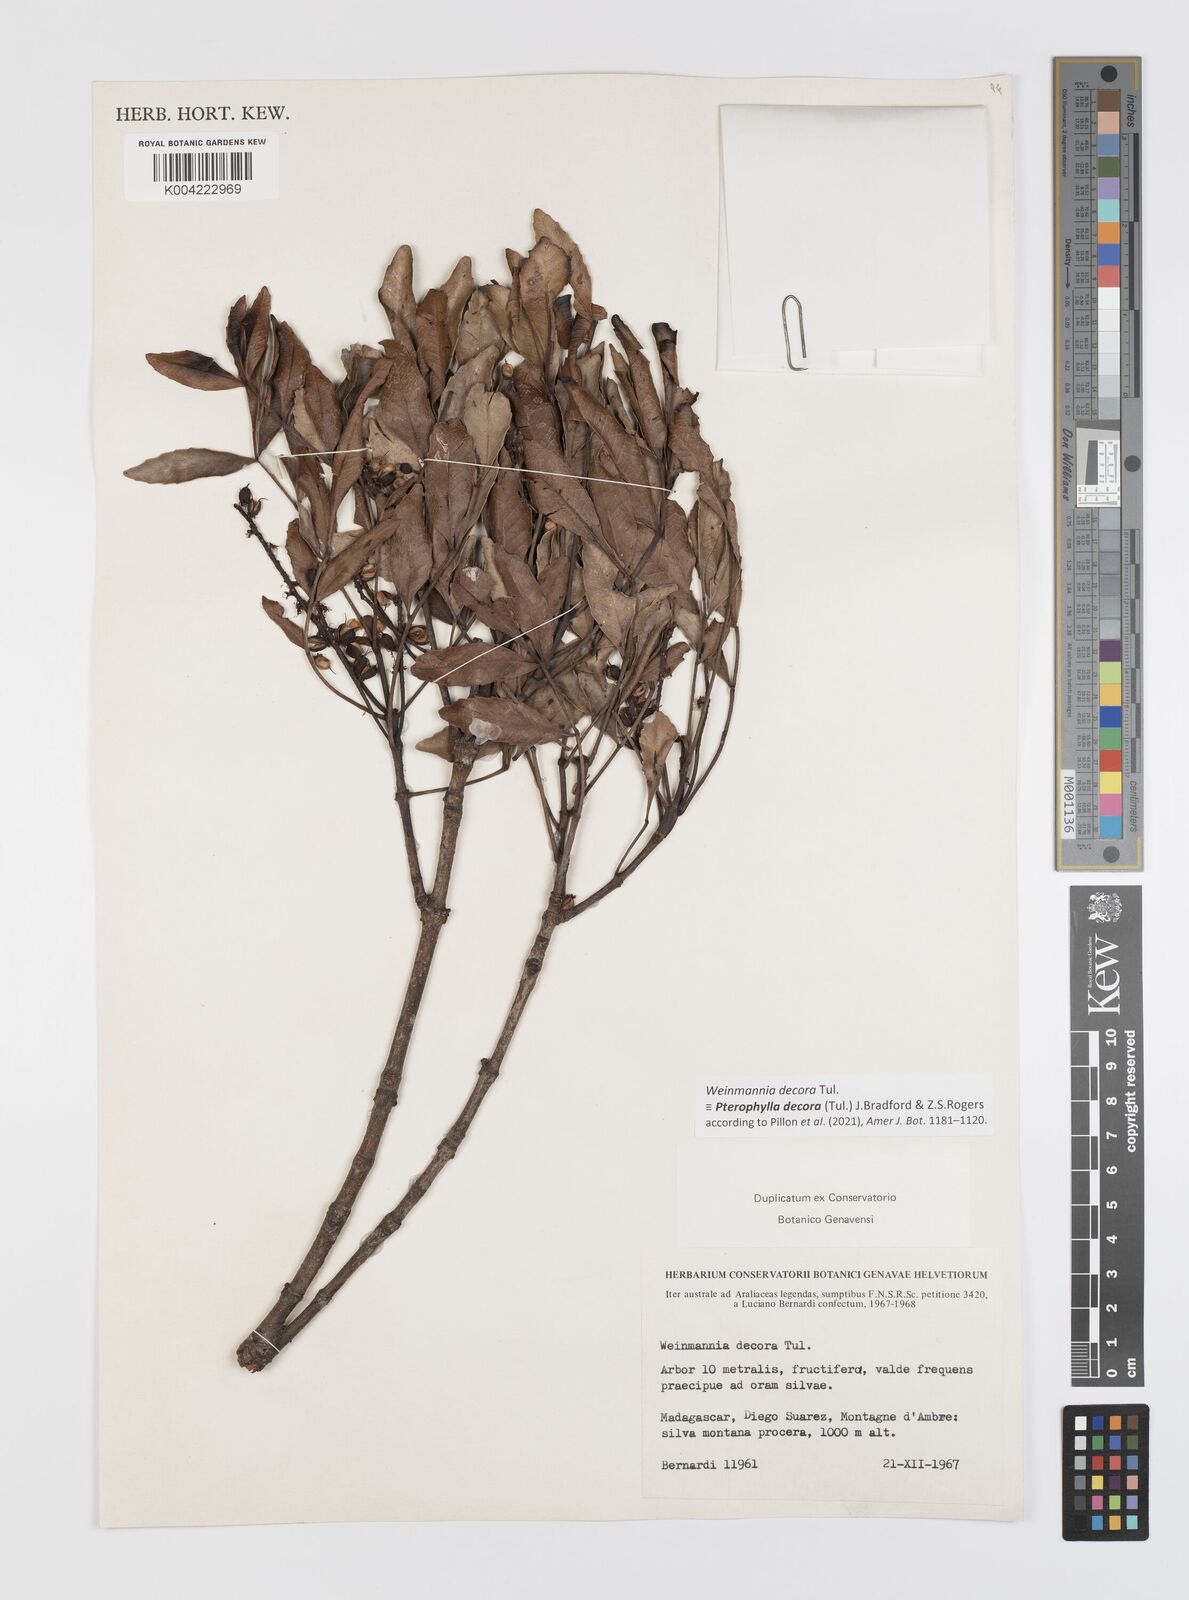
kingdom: Plantae
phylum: Tracheophyta
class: Magnoliopsida
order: Oxalidales
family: Cunoniaceae
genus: Pterophylla
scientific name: Pterophylla decora
